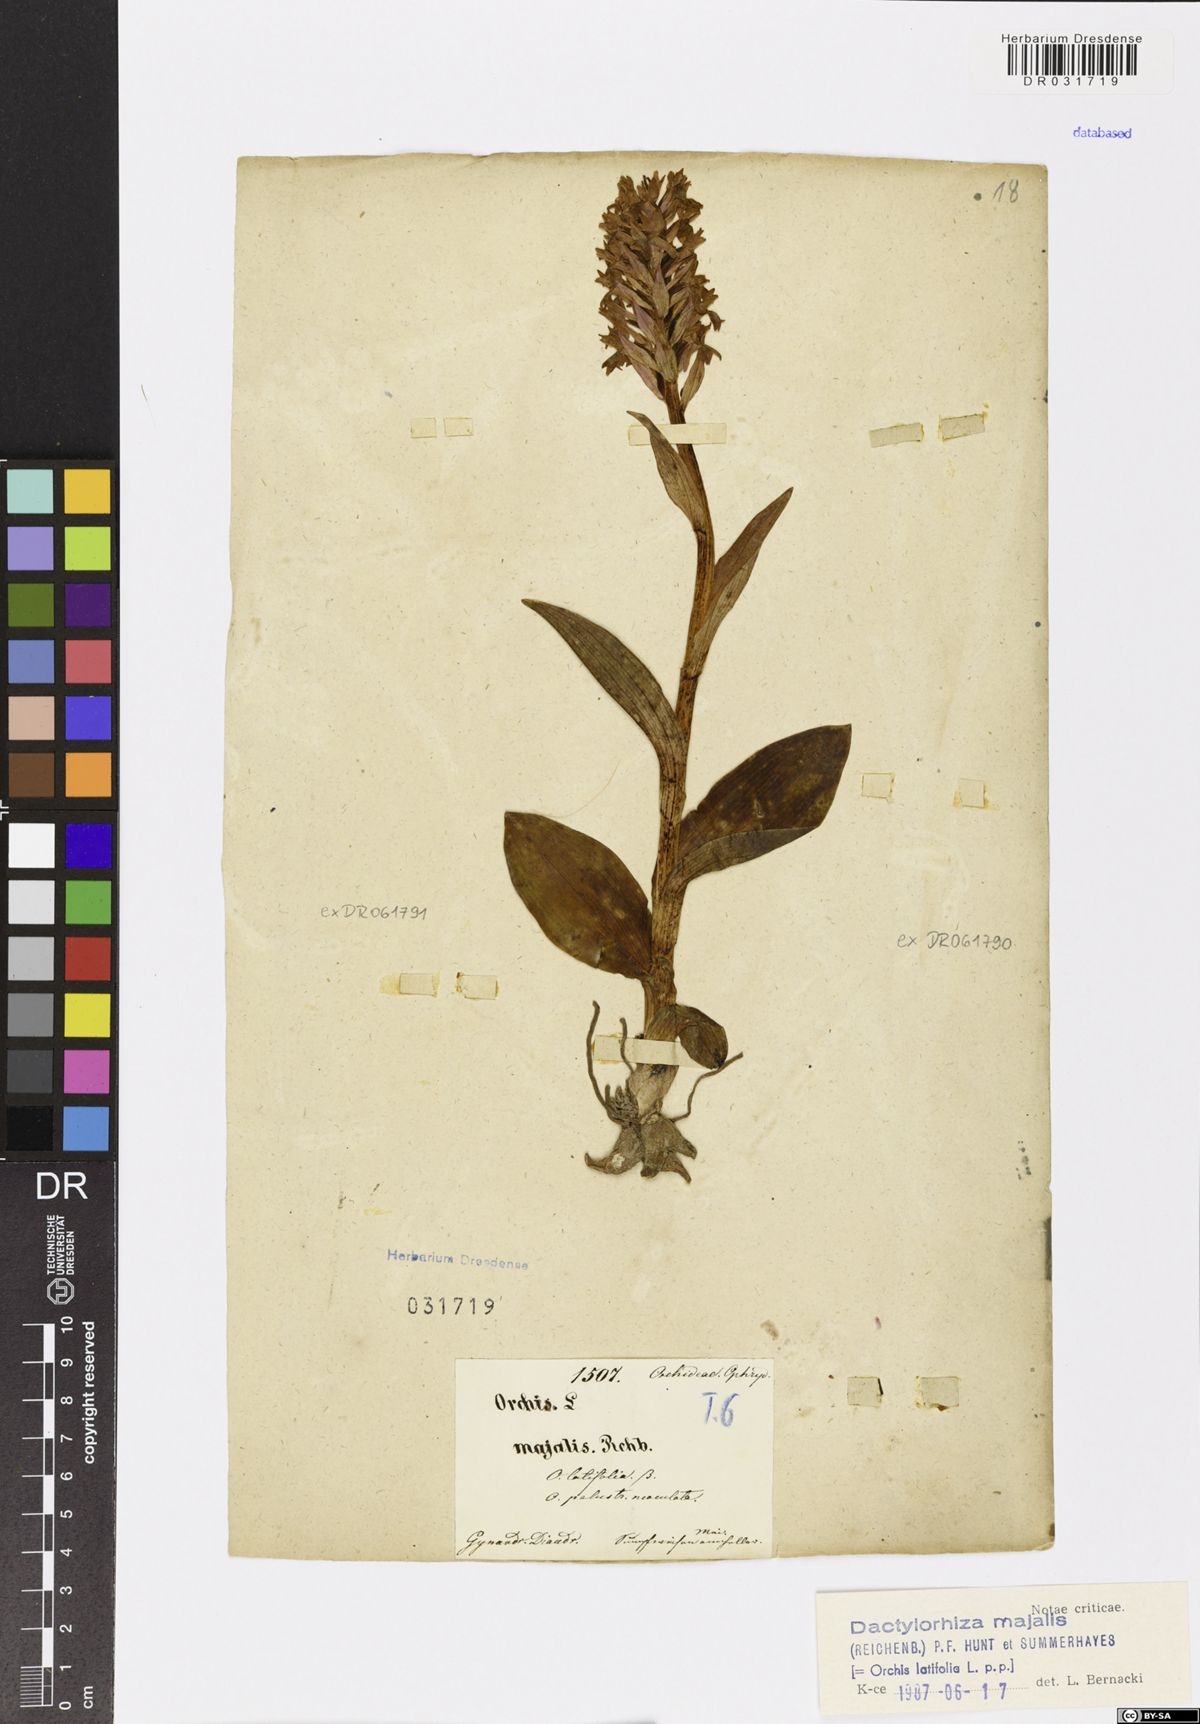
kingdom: Plantae
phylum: Tracheophyta
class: Liliopsida
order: Asparagales
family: Orchidaceae
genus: Dactylorhiza
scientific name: Dactylorhiza majalis
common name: Marsh orchid
